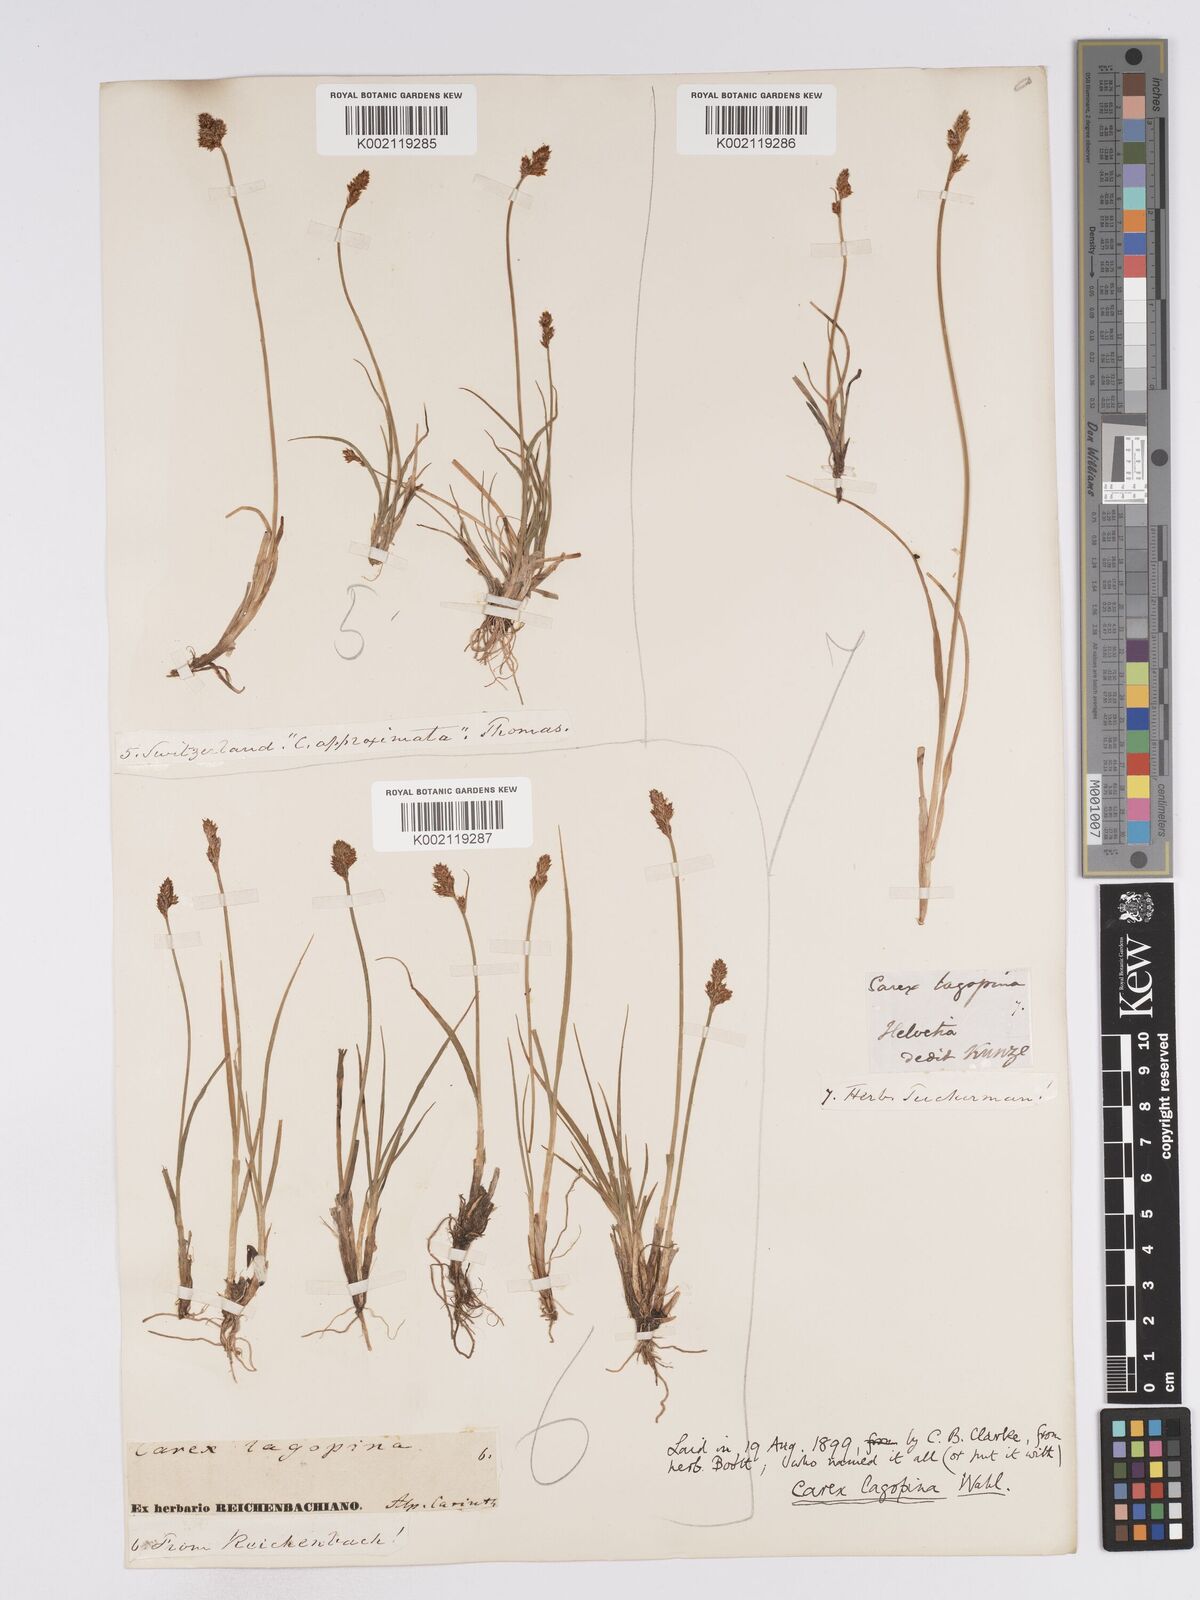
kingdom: Plantae
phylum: Tracheophyta
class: Liliopsida
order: Poales
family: Cyperaceae
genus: Carex
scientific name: Carex lachenalii
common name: Hare's-foot sedge
